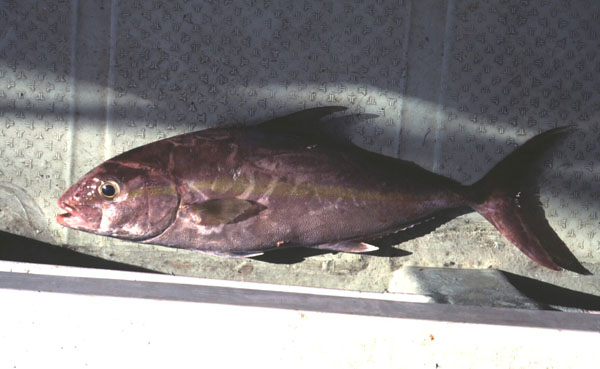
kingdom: Animalia
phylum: Chordata
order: Perciformes
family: Carangidae
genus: Seriola
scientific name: Seriola rivoliana
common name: Almaco jack
